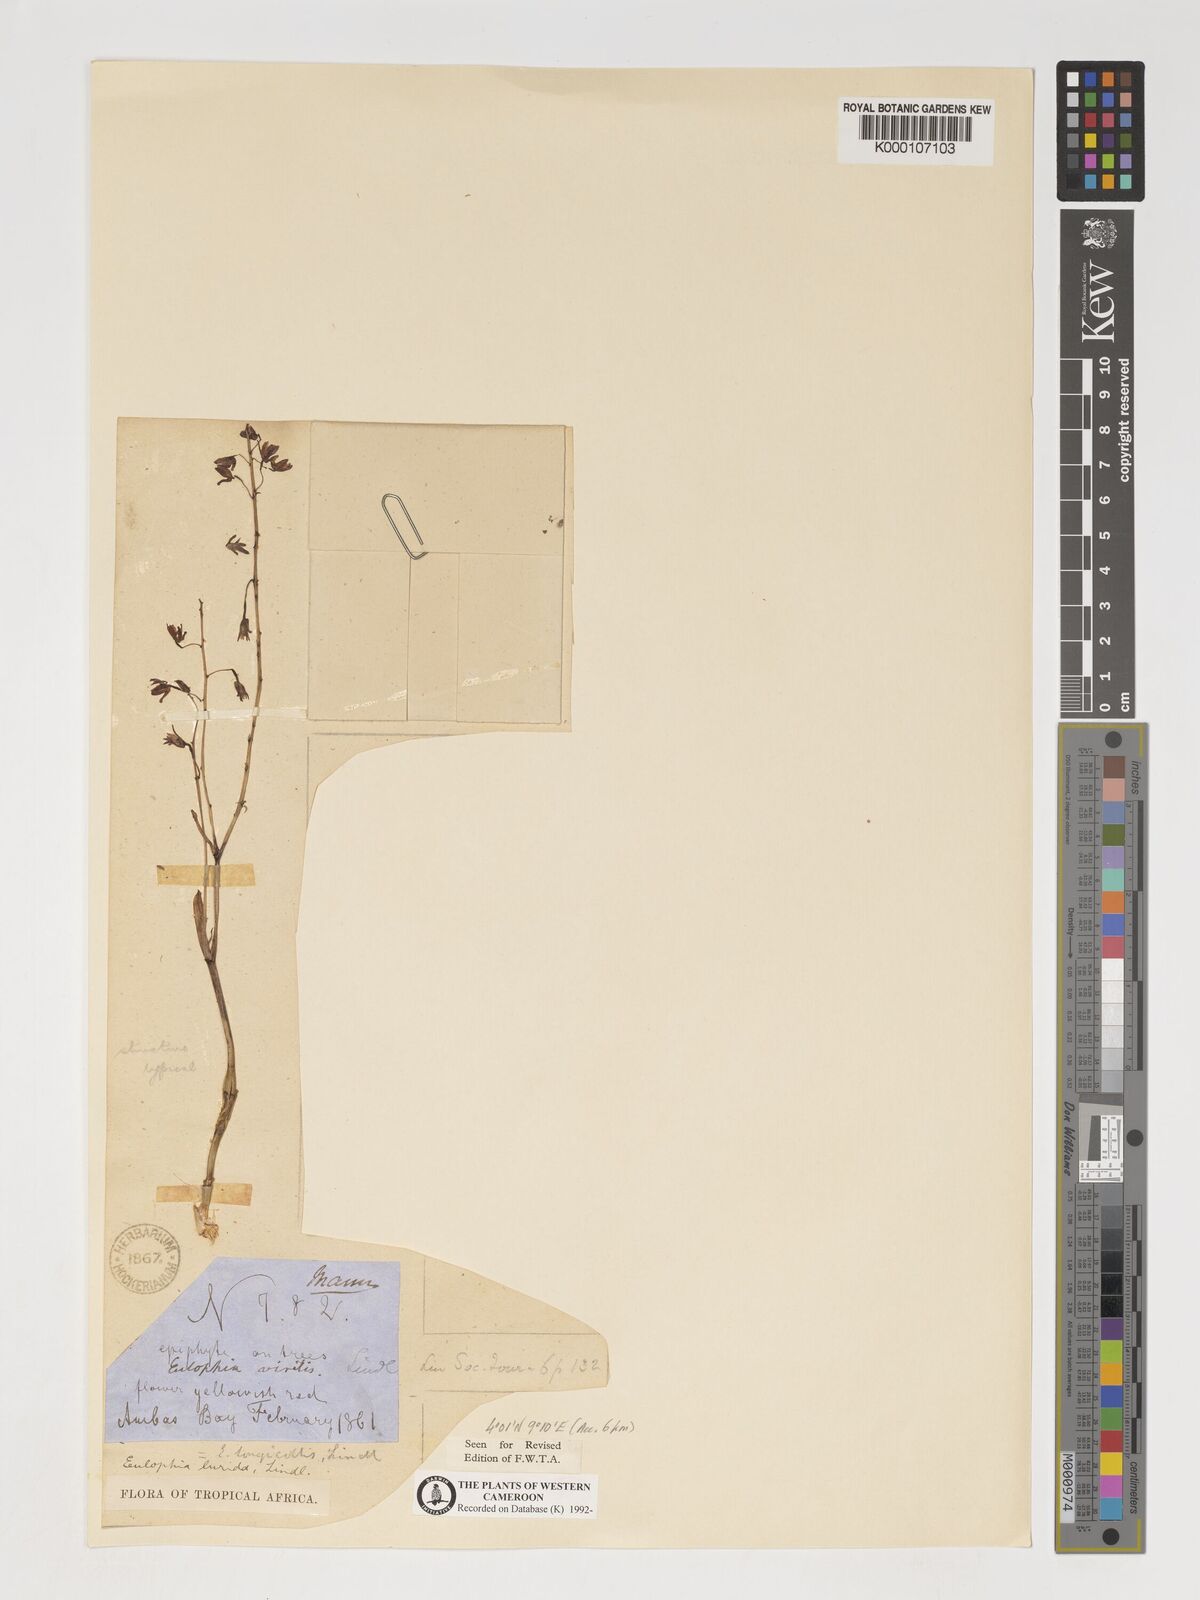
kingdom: Plantae
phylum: Tracheophyta
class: Liliopsida
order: Asparagales
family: Orchidaceae
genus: Graphorkis
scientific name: Graphorkis lurida
